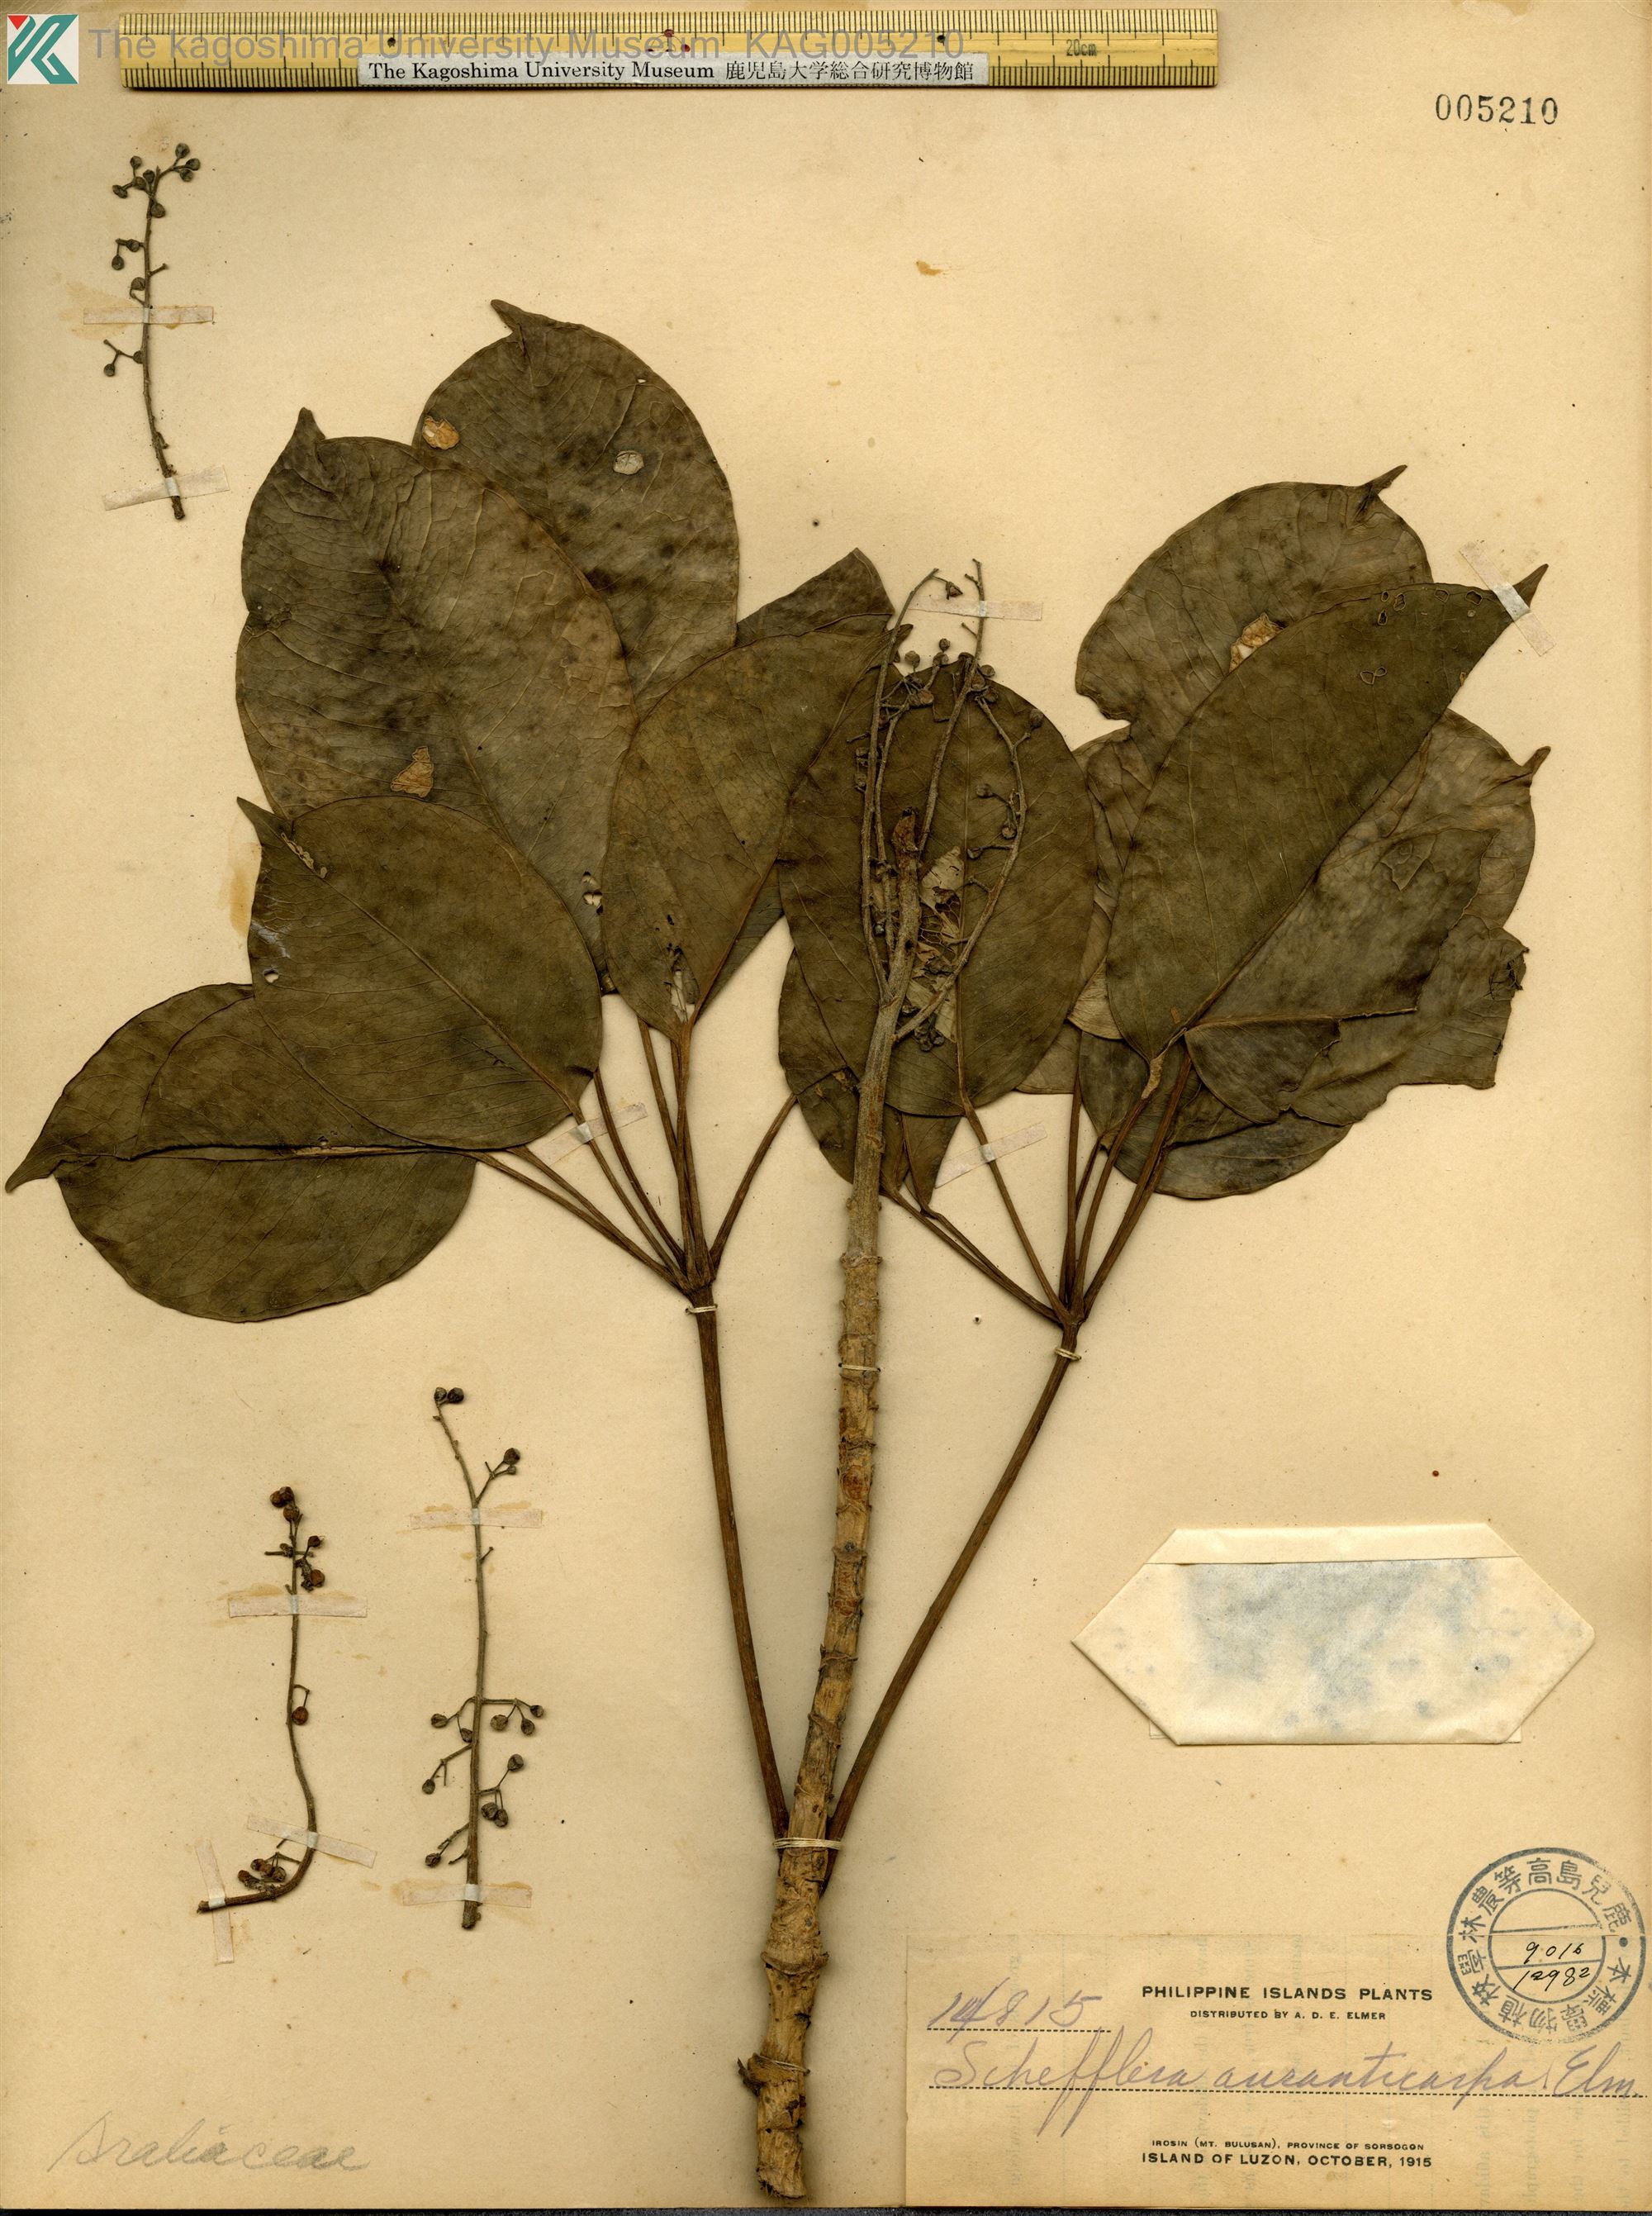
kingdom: Plantae
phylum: Tracheophyta
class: Magnoliopsida
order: Apiales
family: Araliaceae
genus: Heptapleurum
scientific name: Heptapleurum elliptifoliolum
